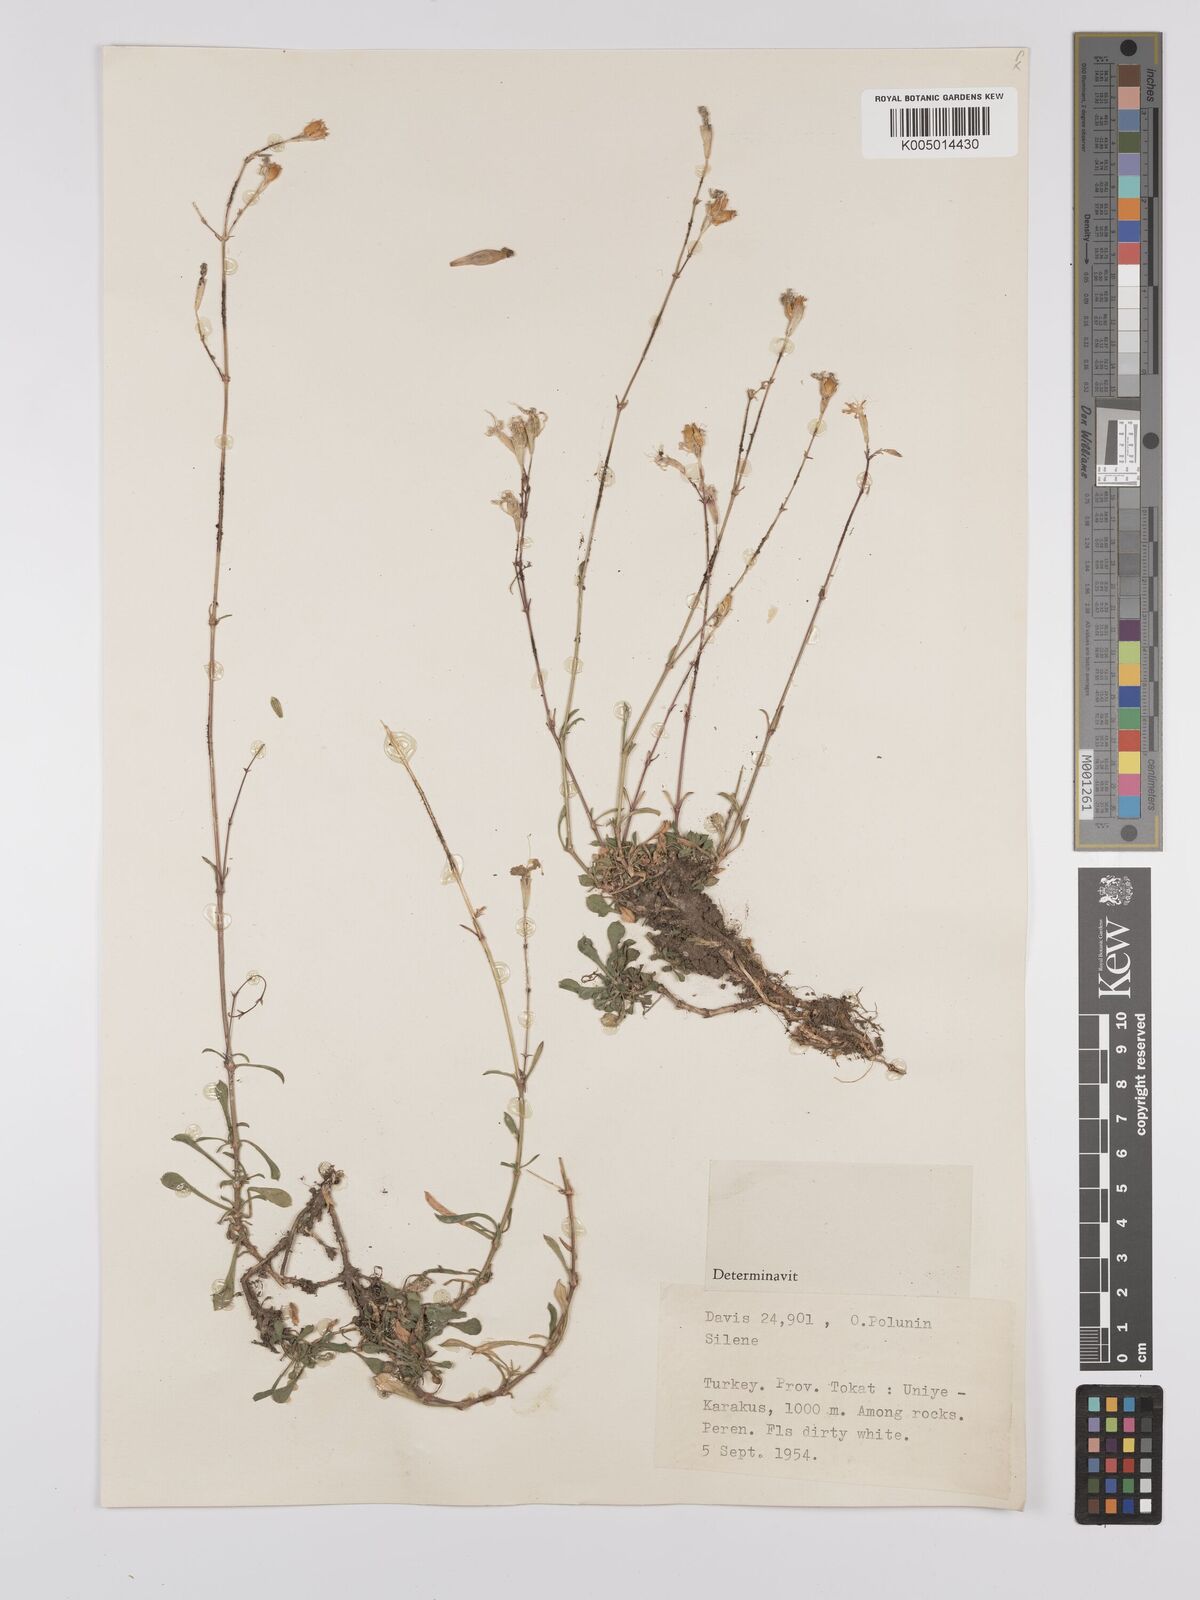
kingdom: Plantae
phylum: Tracheophyta
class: Magnoliopsida
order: Caryophyllales
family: Caryophyllaceae
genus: Silene
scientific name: Silene
